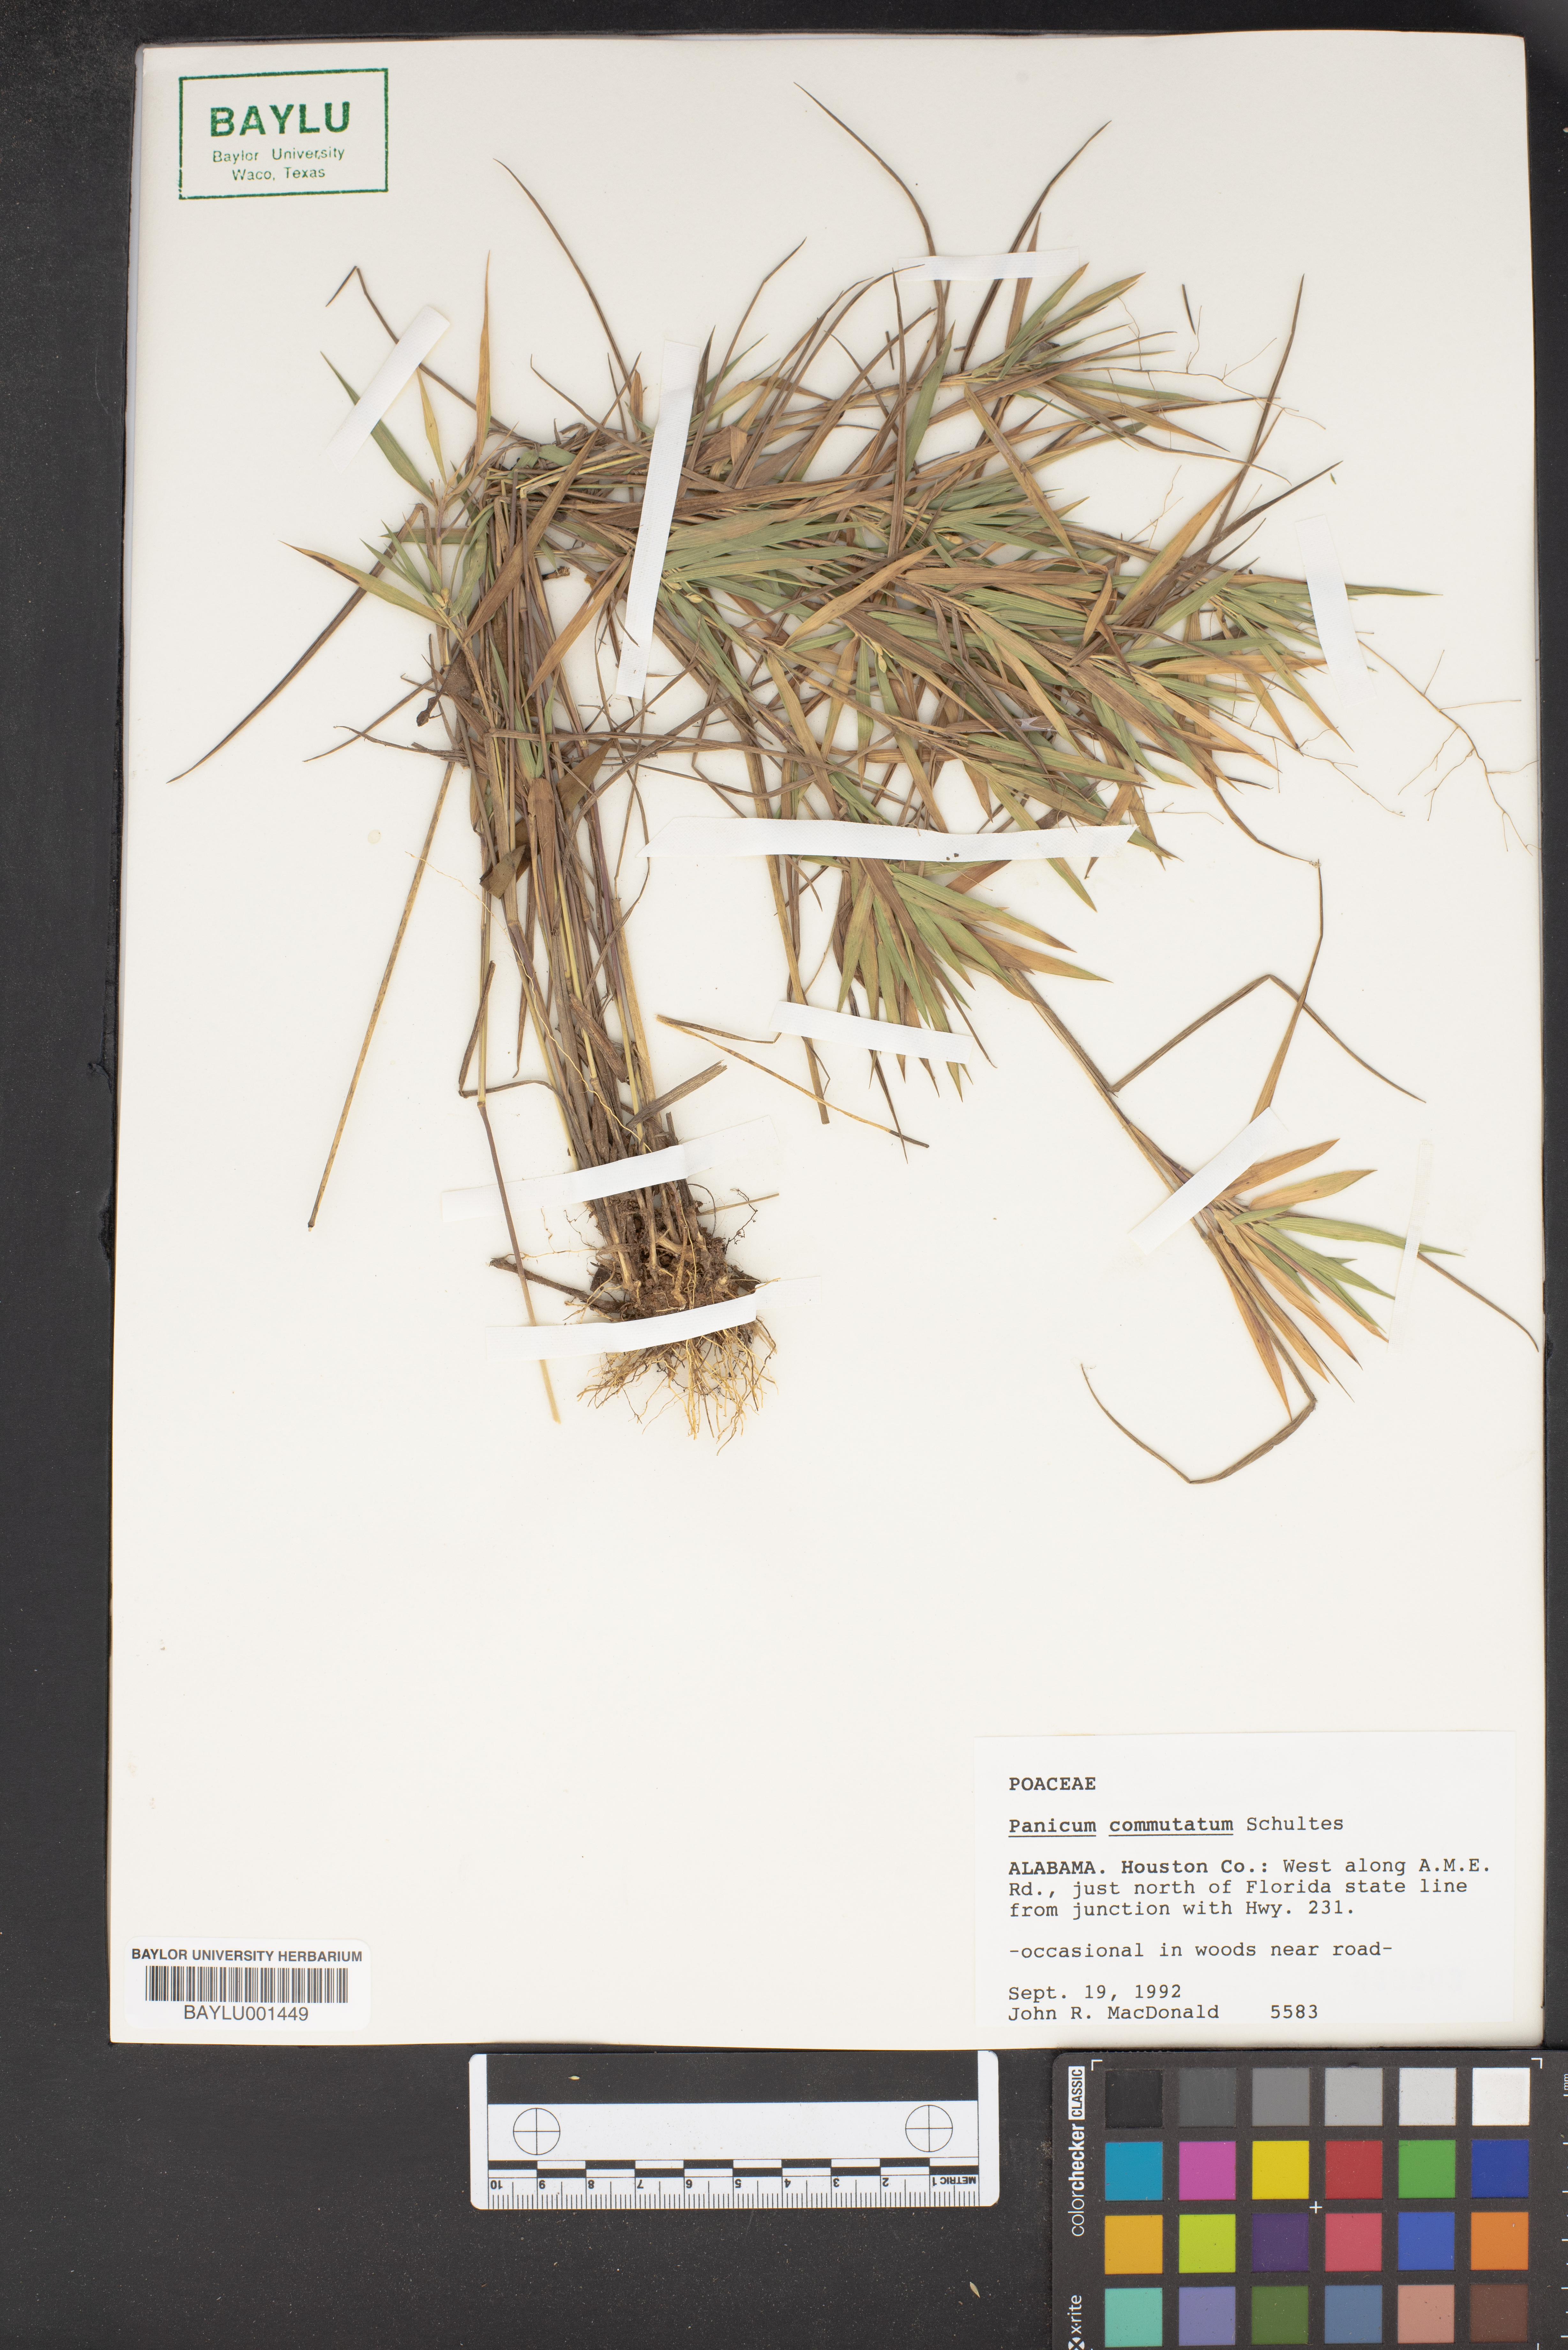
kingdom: Plantae
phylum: Tracheophyta
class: Liliopsida
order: Poales
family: Poaceae
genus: Dichanthelium
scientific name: Dichanthelium commutatum
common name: Variable witchgrass
